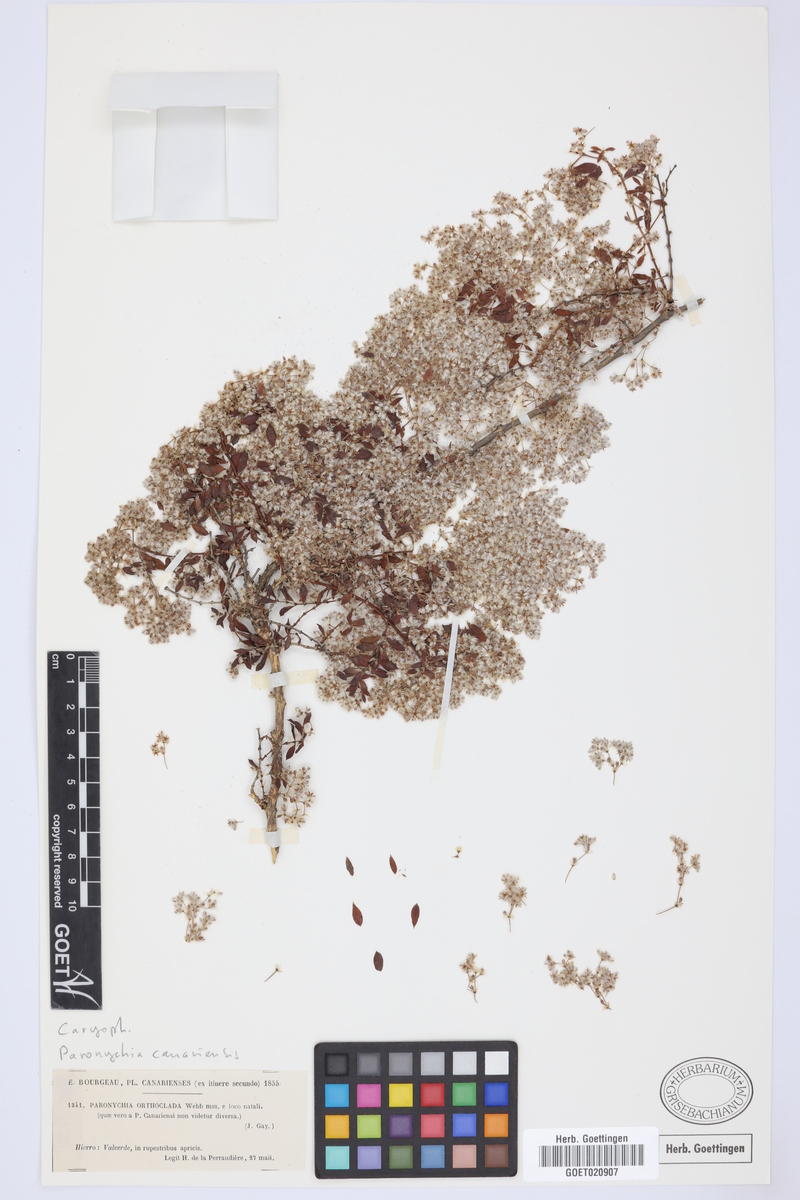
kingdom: Plantae
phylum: Tracheophyta
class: Magnoliopsida
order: Caryophyllales
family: Caryophyllaceae
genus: Paronychia
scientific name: Paronychia canariensis
